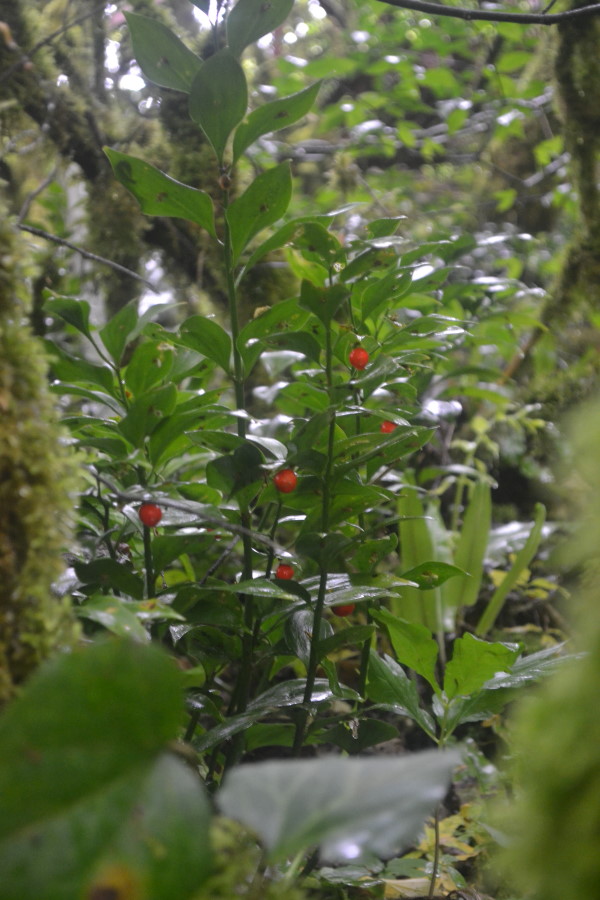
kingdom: Plantae
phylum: Tracheophyta
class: Liliopsida
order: Asparagales
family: Asparagaceae
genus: Ruscus
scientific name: Ruscus colchicus
